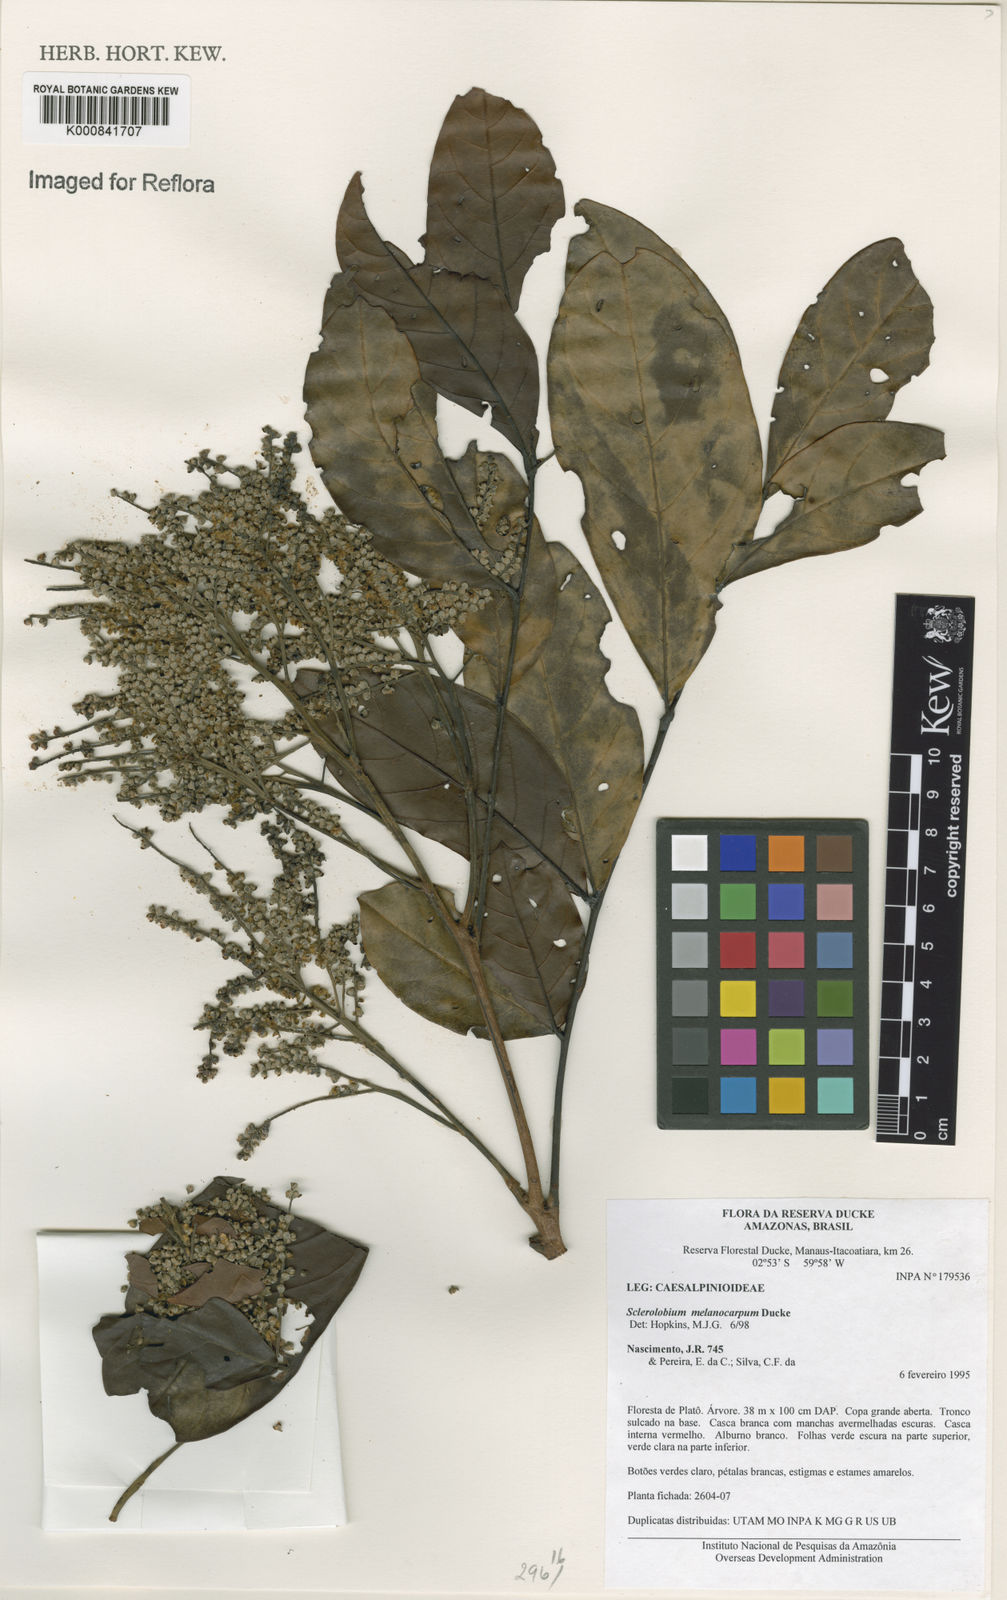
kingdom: Plantae
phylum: Tracheophyta
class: Magnoliopsida
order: Fabales
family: Fabaceae
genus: Tachigali
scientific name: Tachigali melanocarpa
